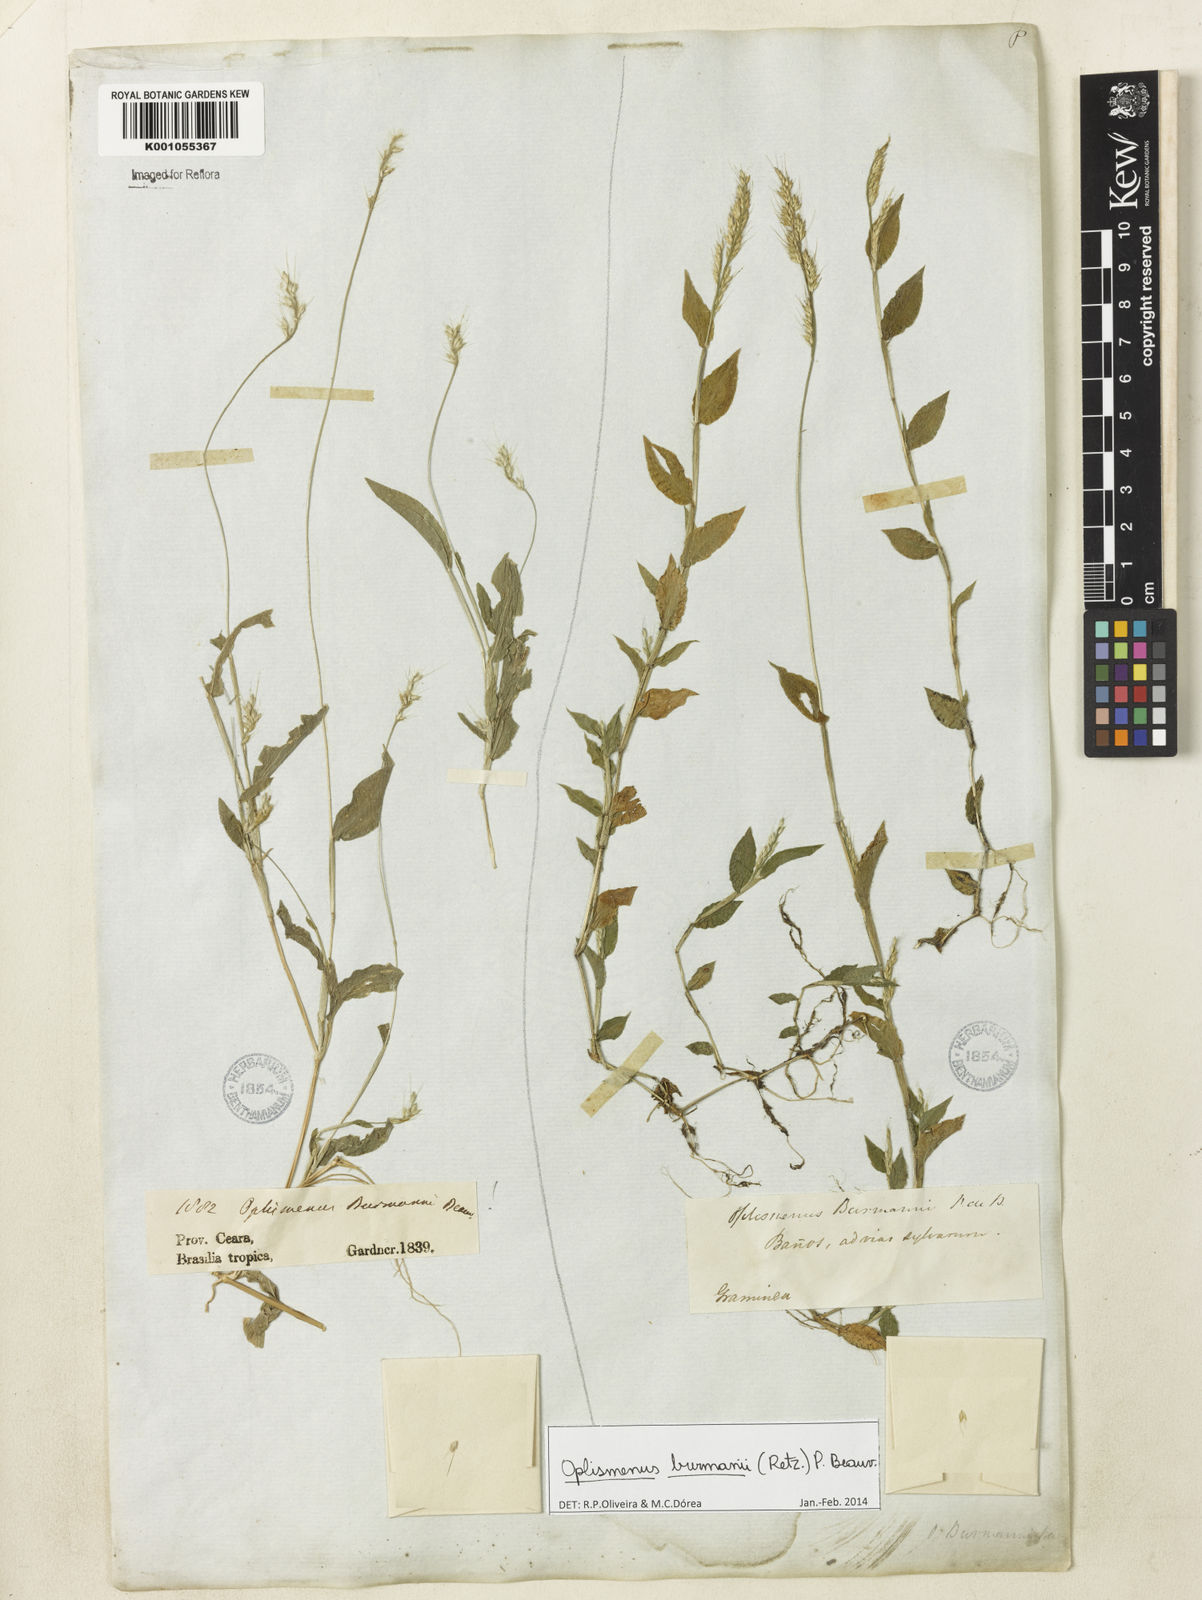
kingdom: Plantae
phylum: Tracheophyta
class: Liliopsida
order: Poales
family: Poaceae
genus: Oplismenus
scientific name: Oplismenus burmanni
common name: Burmann's basketgrass
